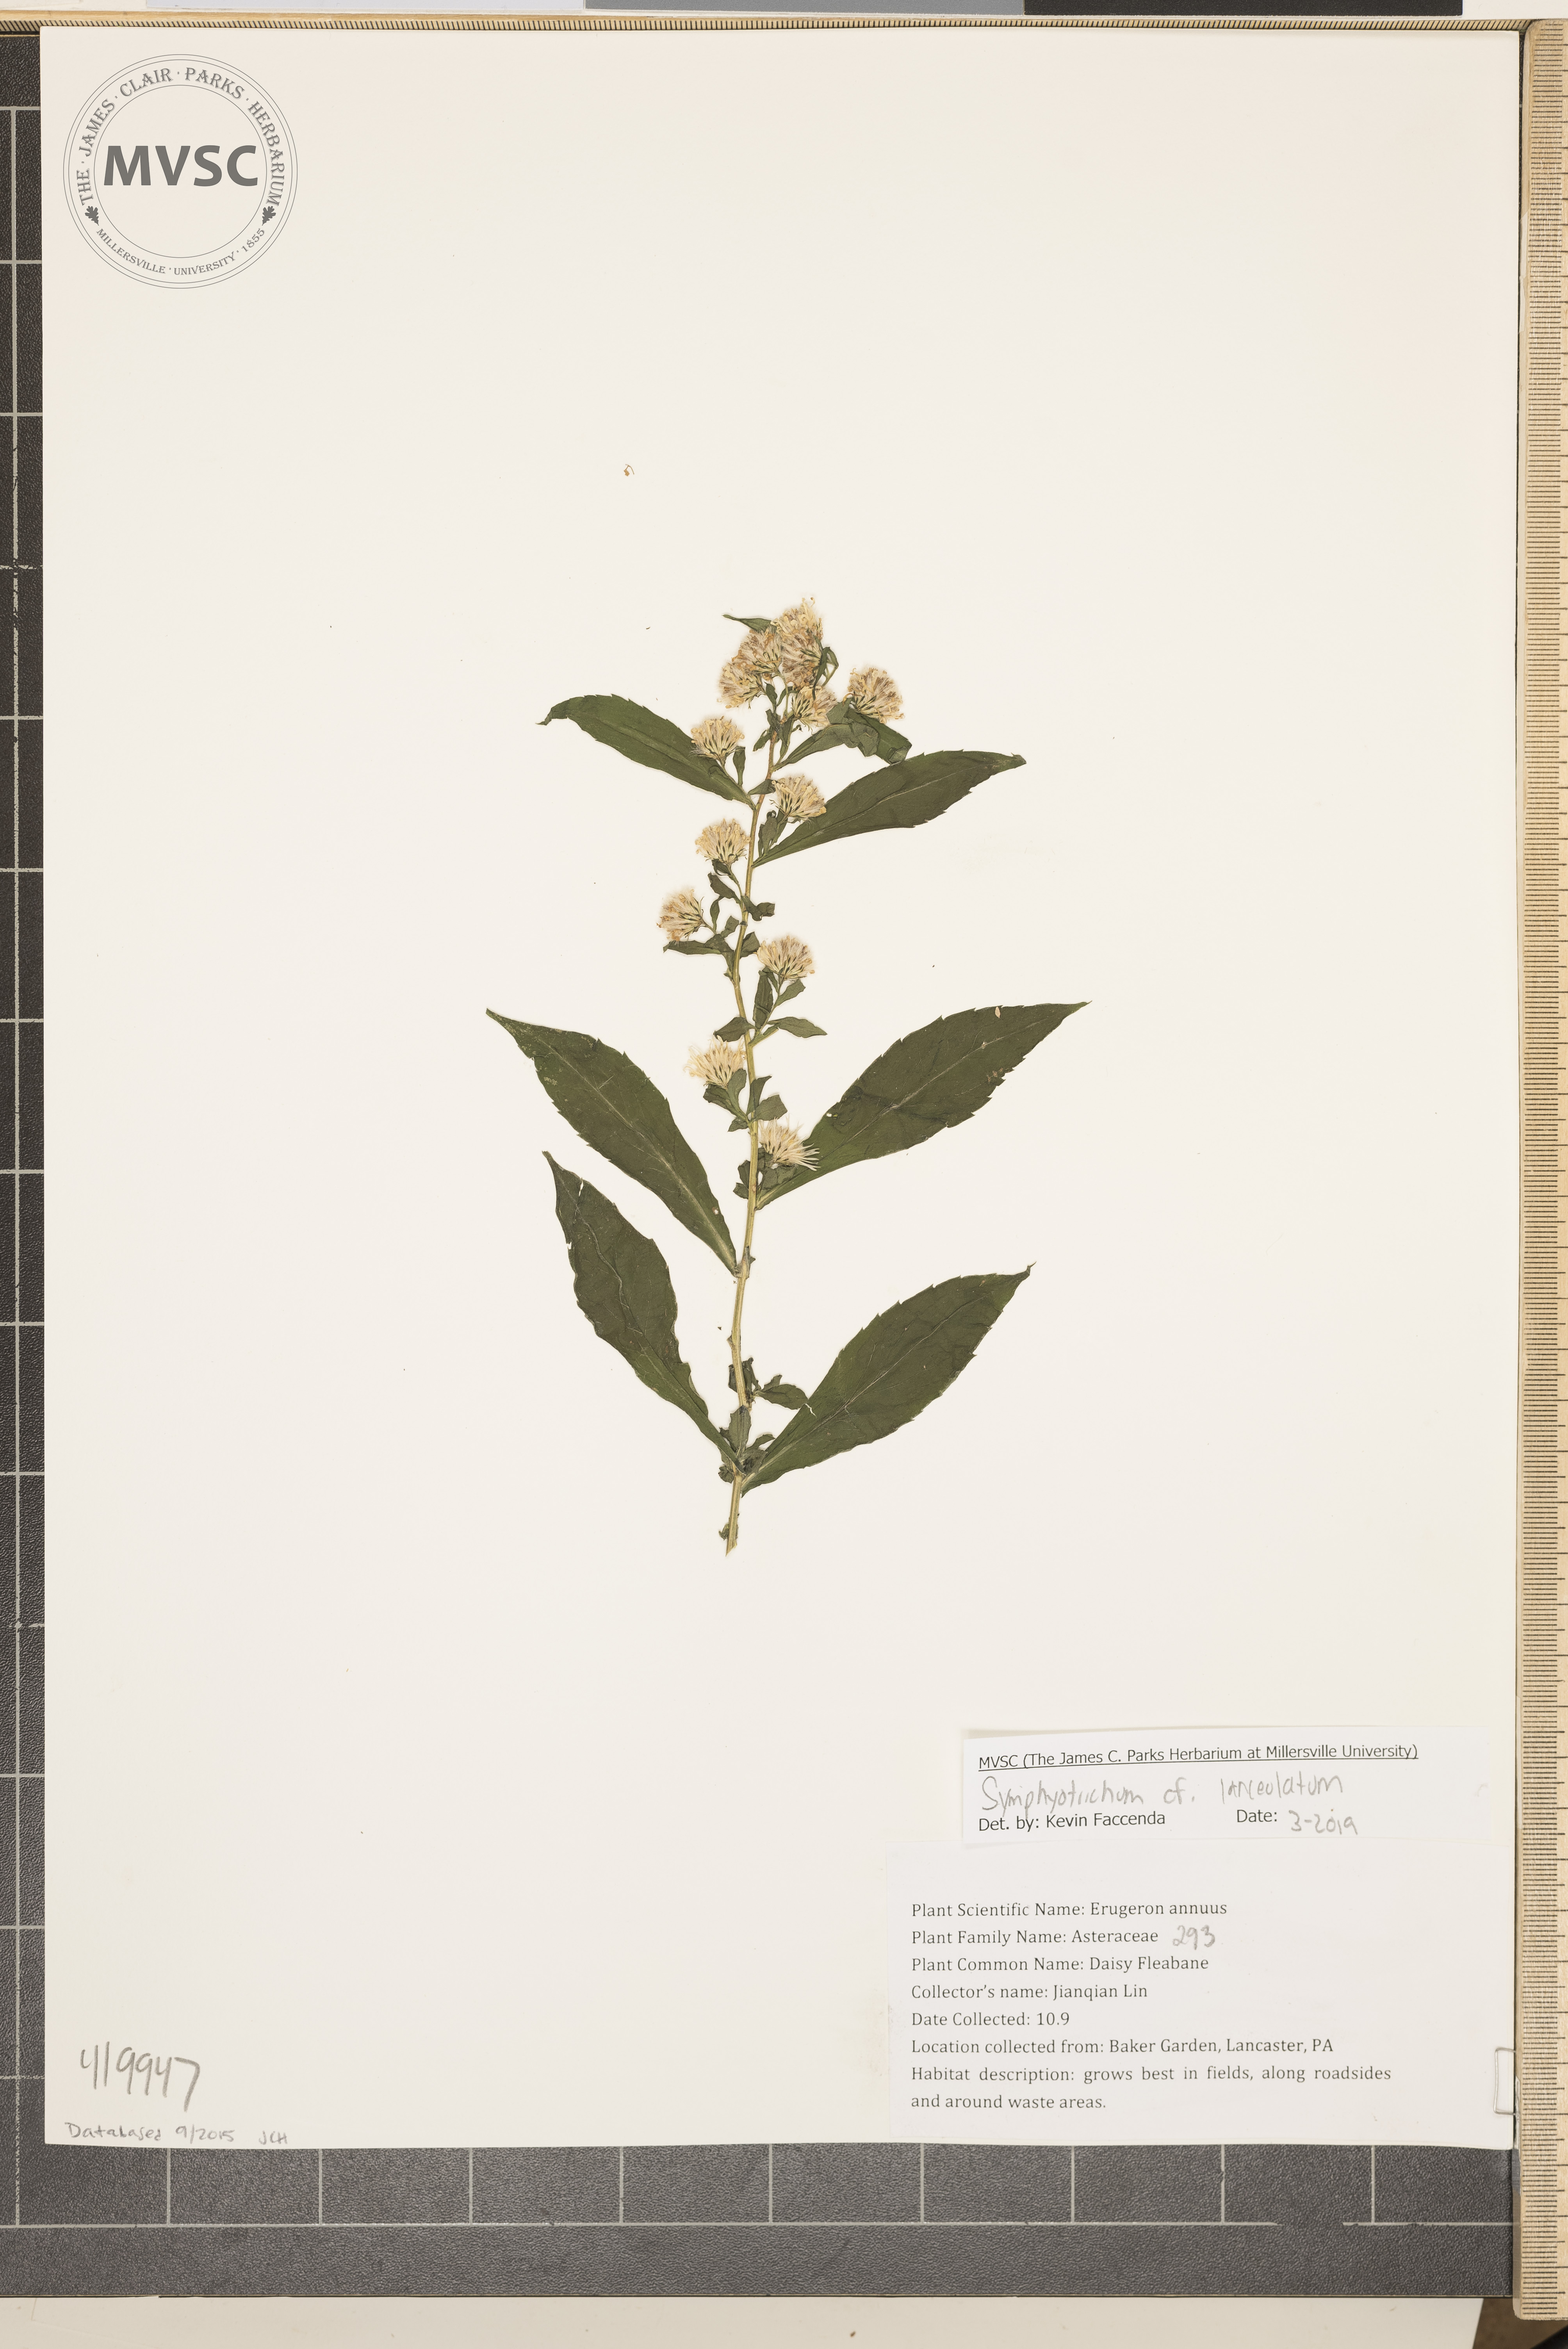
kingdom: Plantae
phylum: Tracheophyta
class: Magnoliopsida
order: Asterales
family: Asteraceae
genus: Symphyotrichum
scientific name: Symphyotrichum lanceolatum
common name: Panicled aster
